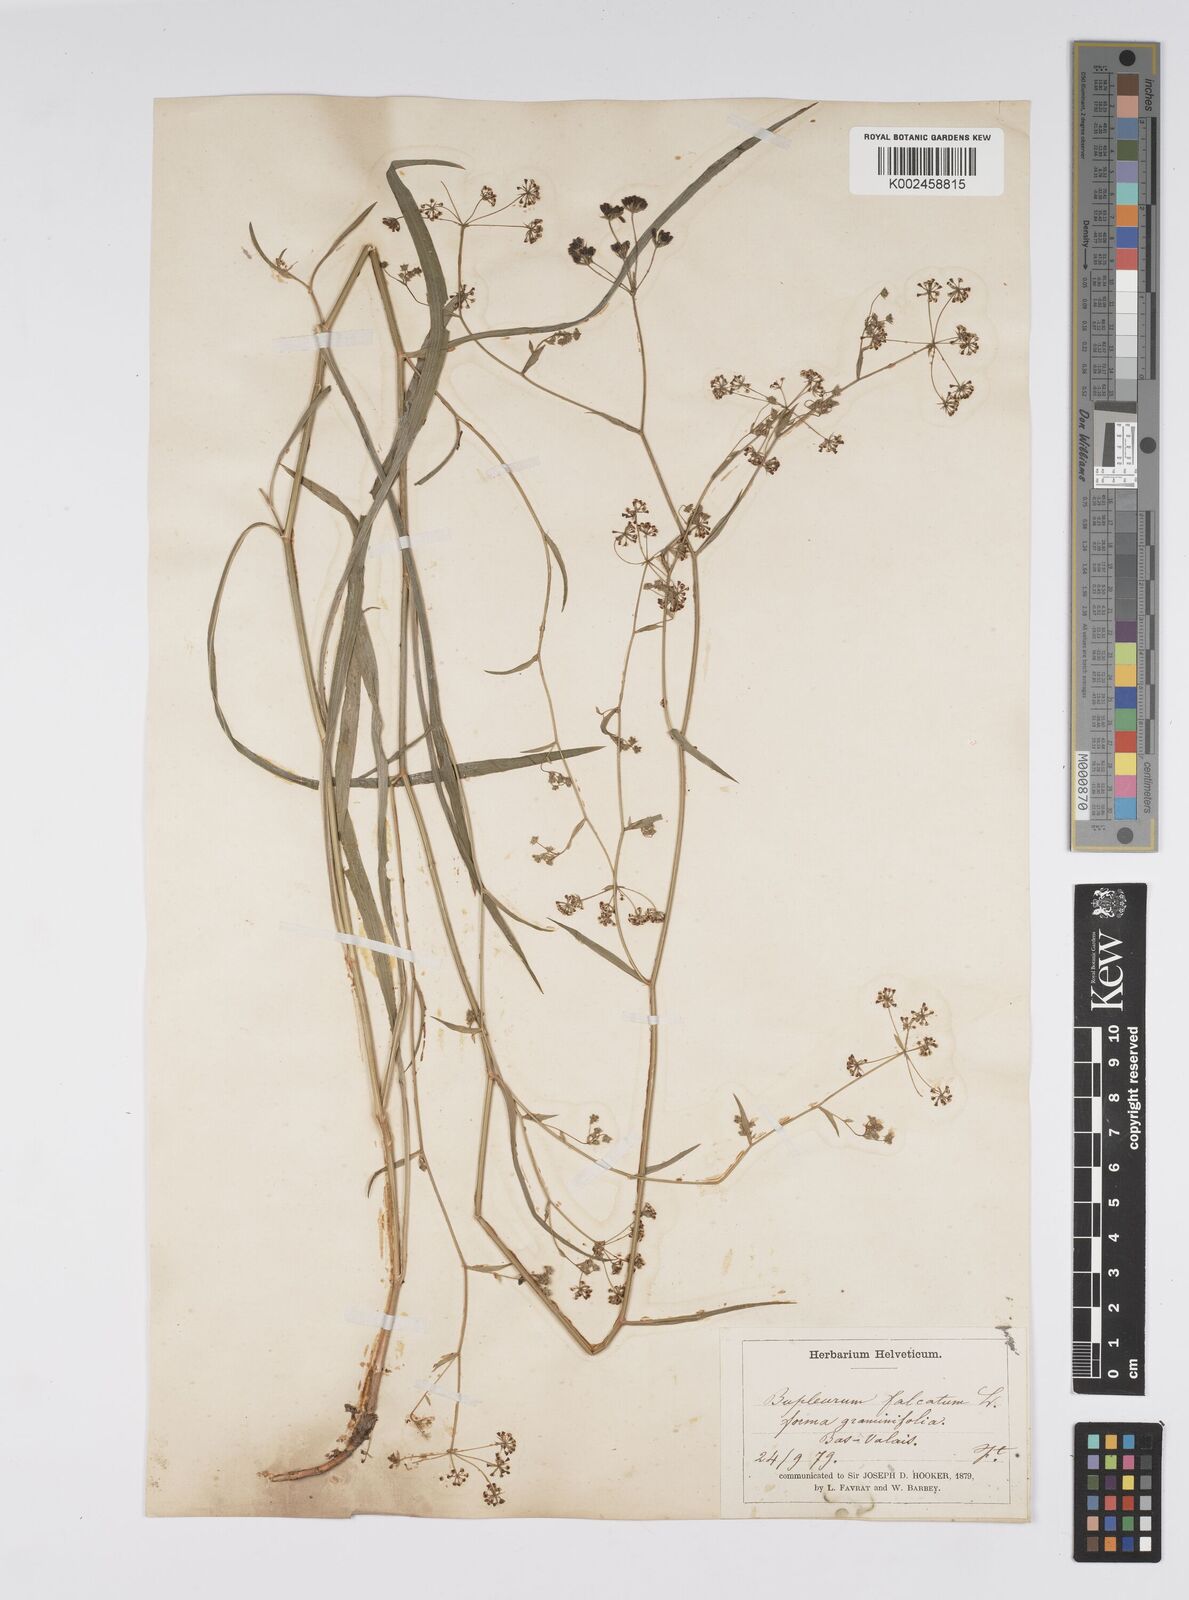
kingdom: Plantae
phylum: Tracheophyta
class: Magnoliopsida
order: Apiales
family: Apiaceae
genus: Bupleurum
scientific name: Bupleurum falcatum
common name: Sickle-leaved hare's-ear
